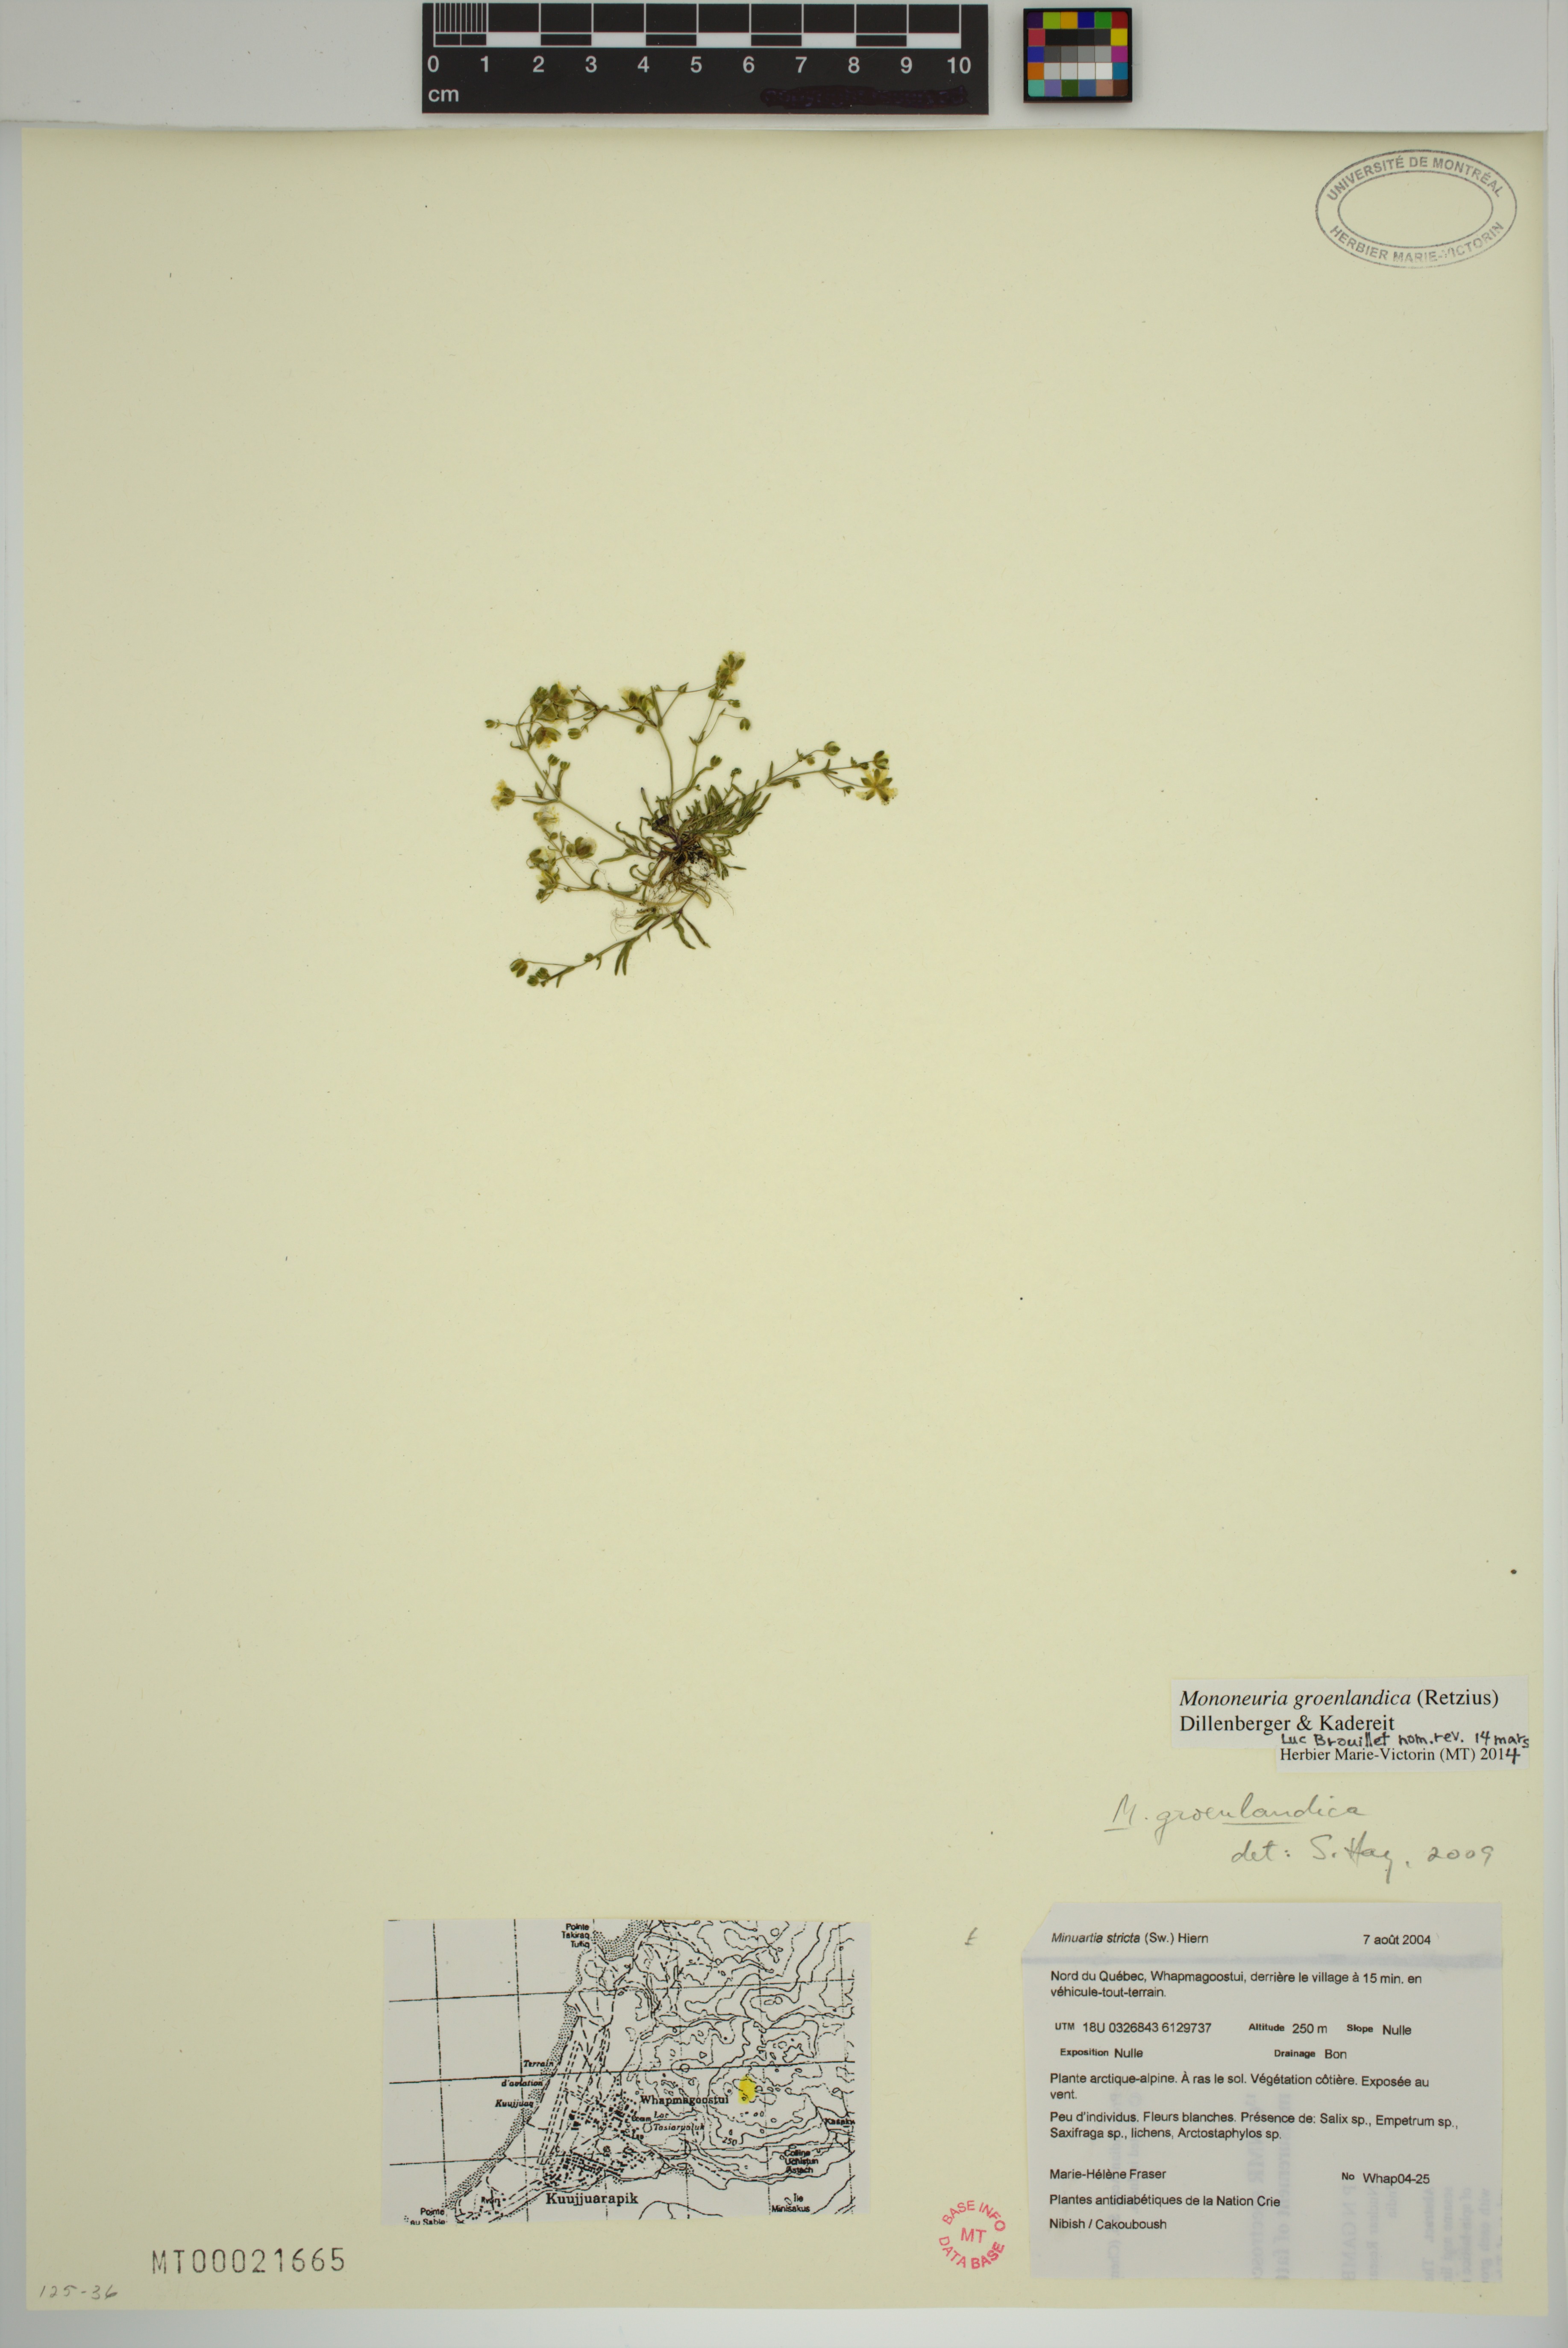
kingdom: Plantae
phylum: Tracheophyta
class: Magnoliopsida
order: Caryophyllales
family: Caryophyllaceae
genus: Geocarpon
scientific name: Geocarpon groenlandicum
